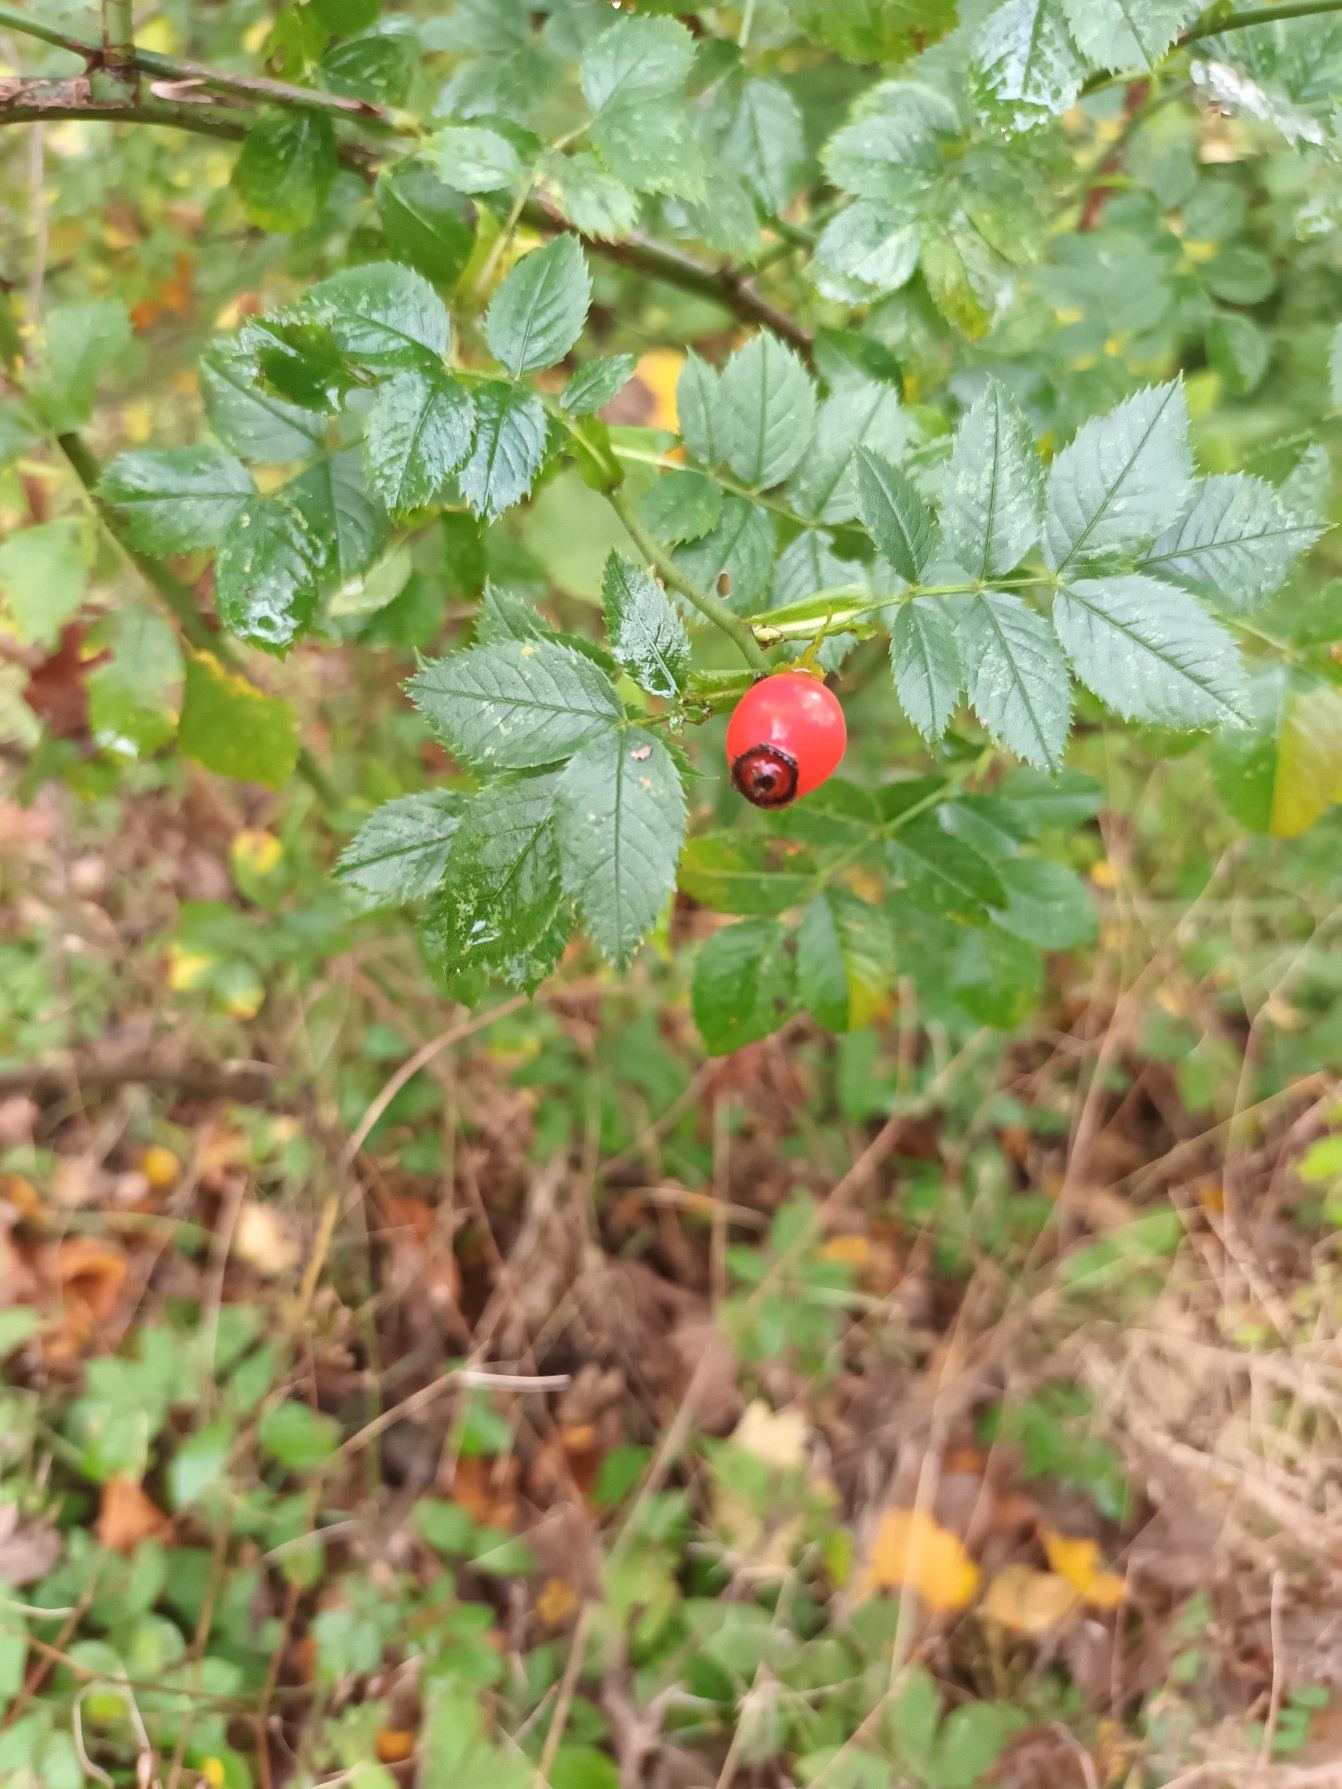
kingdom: Plantae
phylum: Tracheophyta
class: Magnoliopsida
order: Rosales
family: Rosaceae
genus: Rosa
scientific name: Rosa canina
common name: Glat hunde-rose
